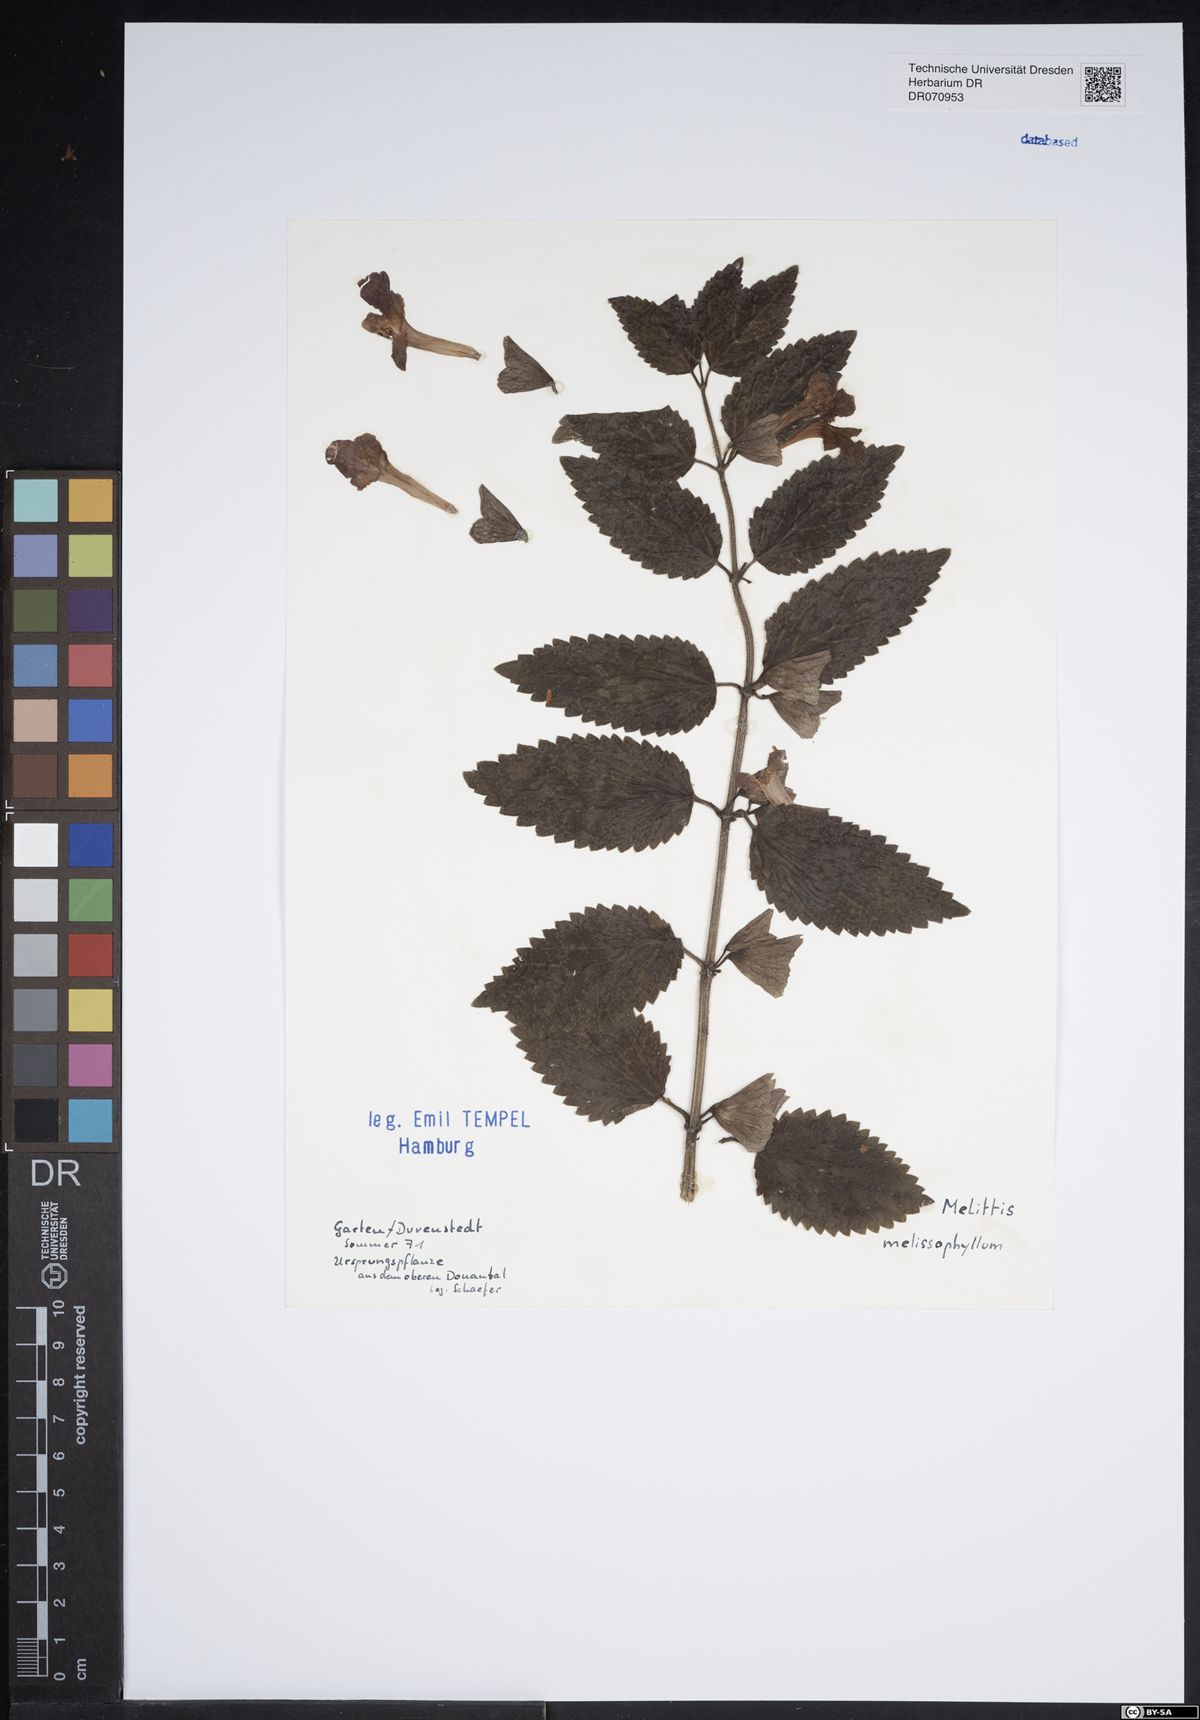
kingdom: Plantae
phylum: Tracheophyta
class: Magnoliopsida
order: Lamiales
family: Lamiaceae
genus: Melittis
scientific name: Melittis melissophyllum
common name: Bastard balm
